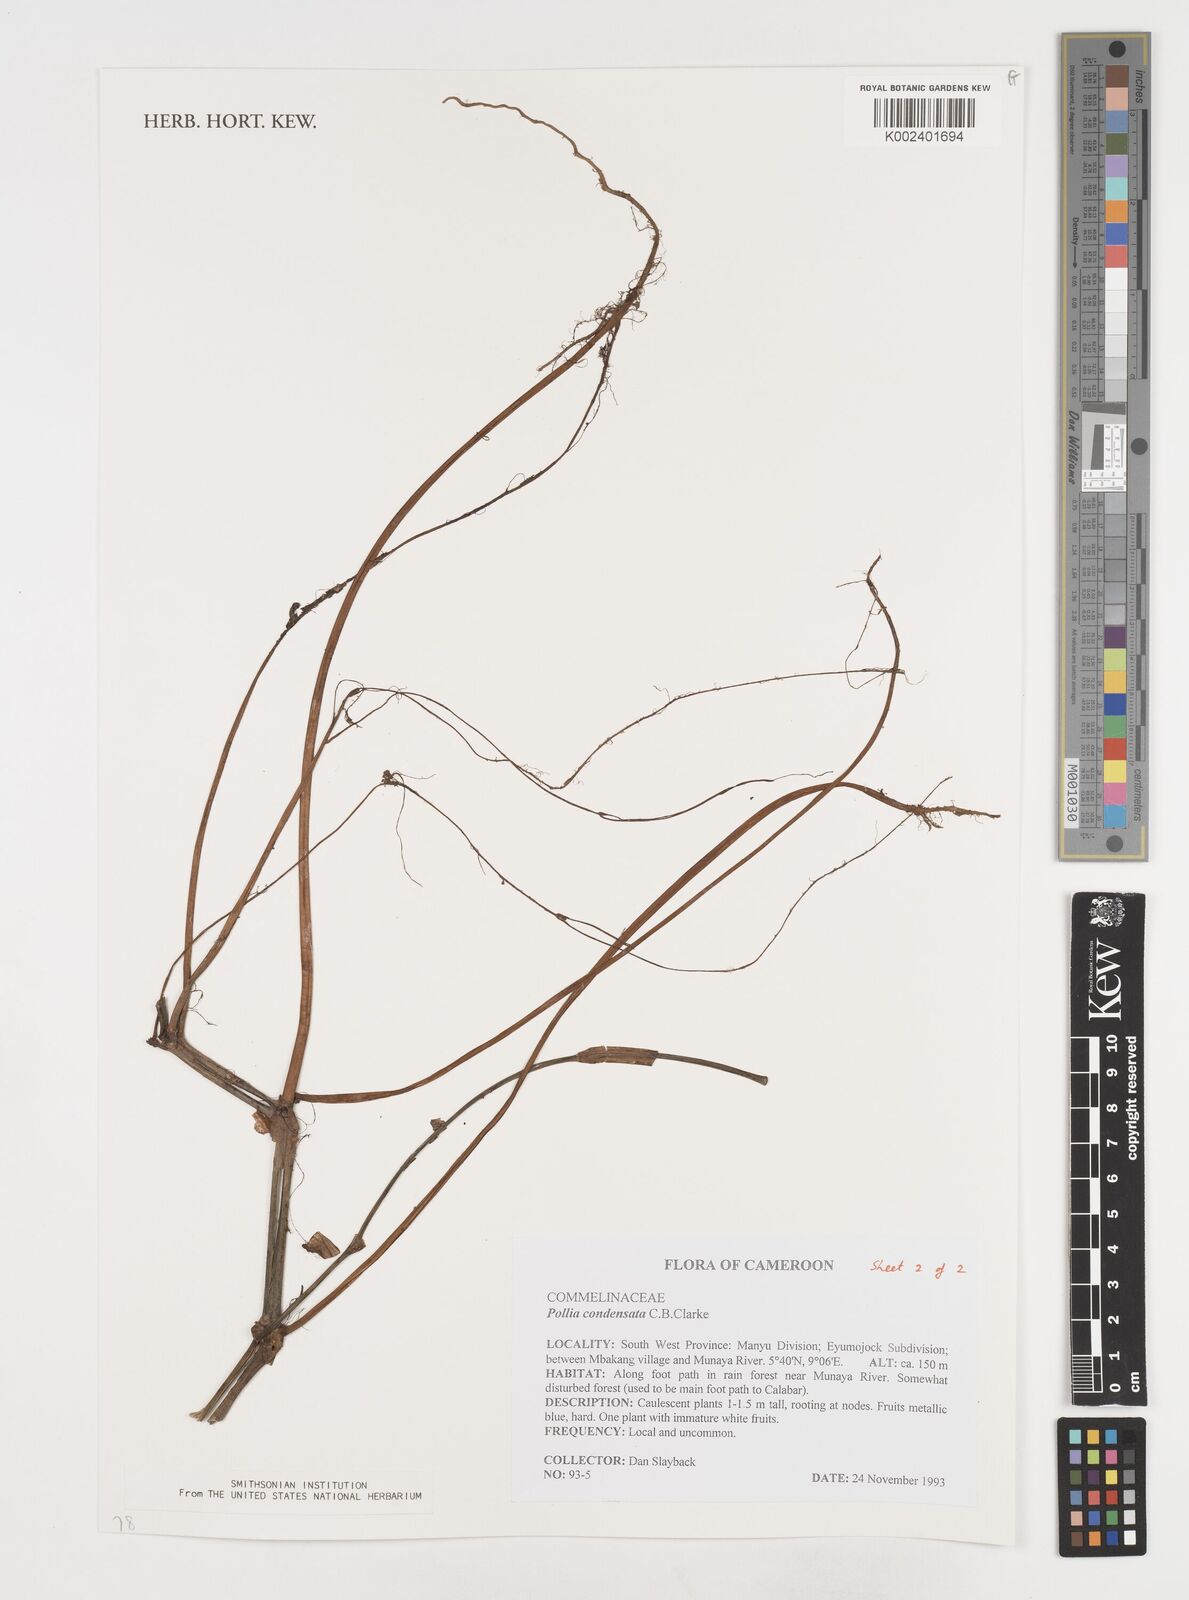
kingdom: Plantae
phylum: Tracheophyta
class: Liliopsida
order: Commelinales
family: Commelinaceae
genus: Pollia
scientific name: Pollia condensata
